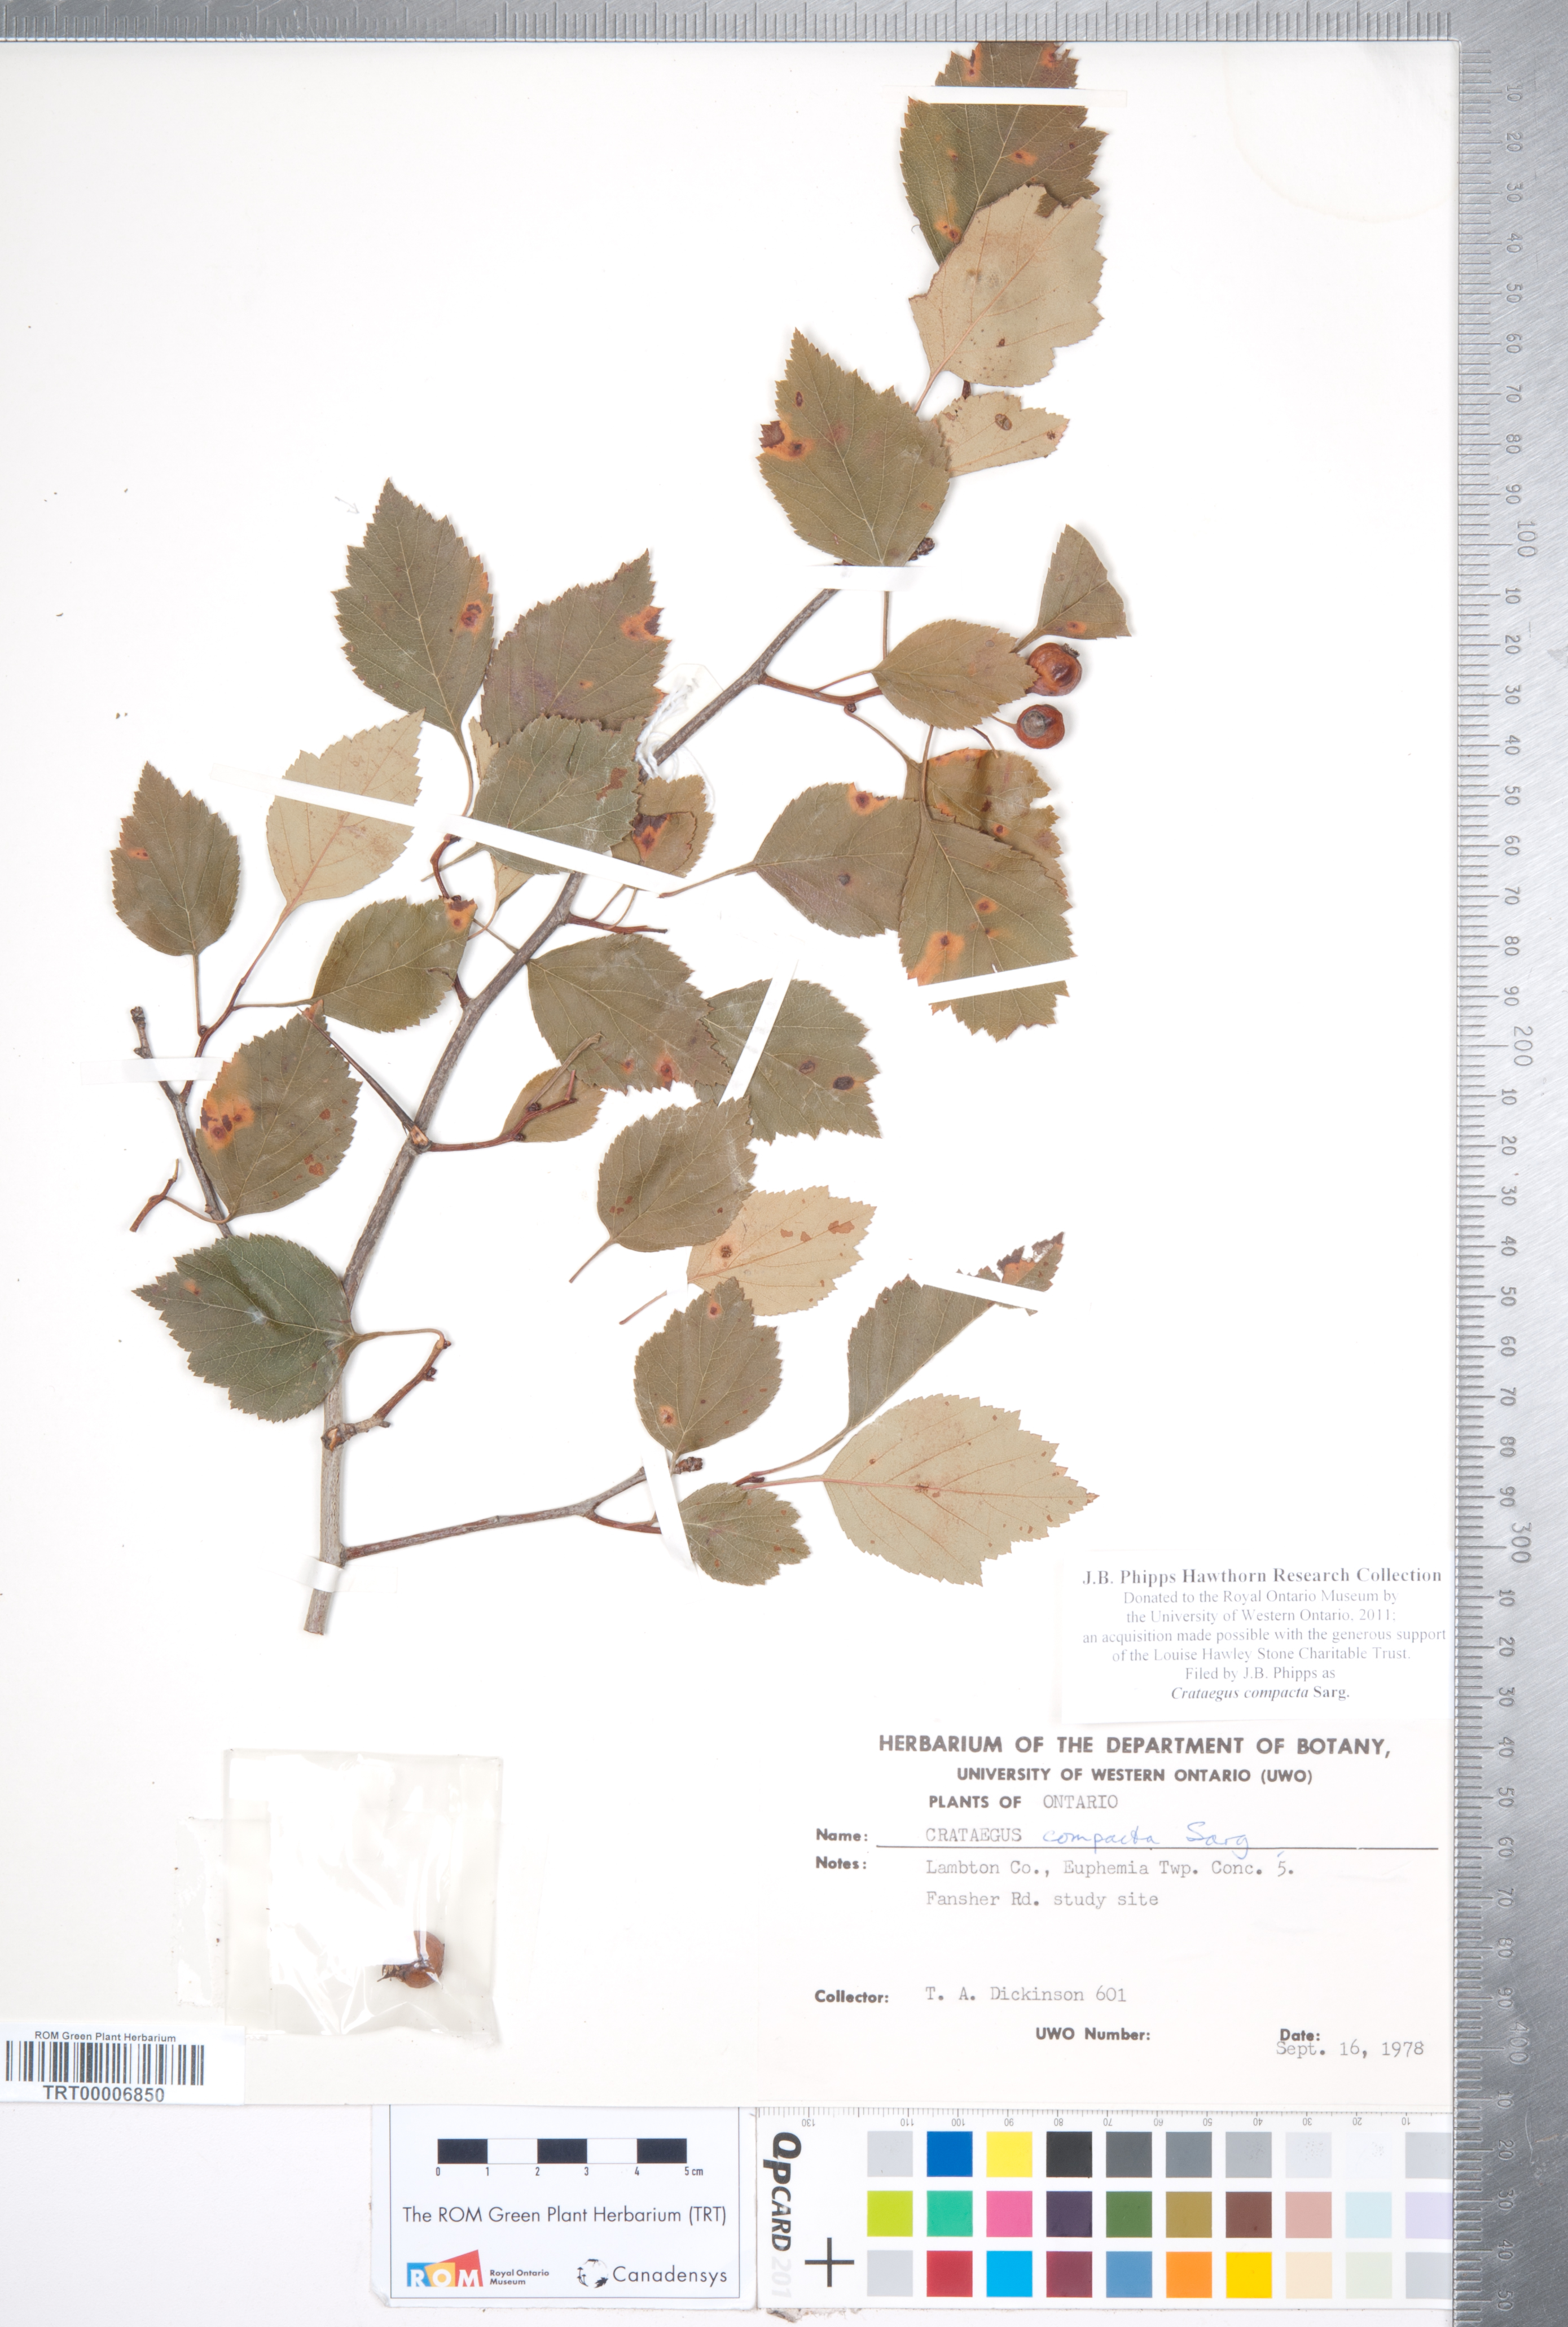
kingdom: Plantae
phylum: Tracheophyta
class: Magnoliopsida
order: Rosales
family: Rosaceae
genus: Crataegus
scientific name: Crataegus compacta
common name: Clustered hawthorn
